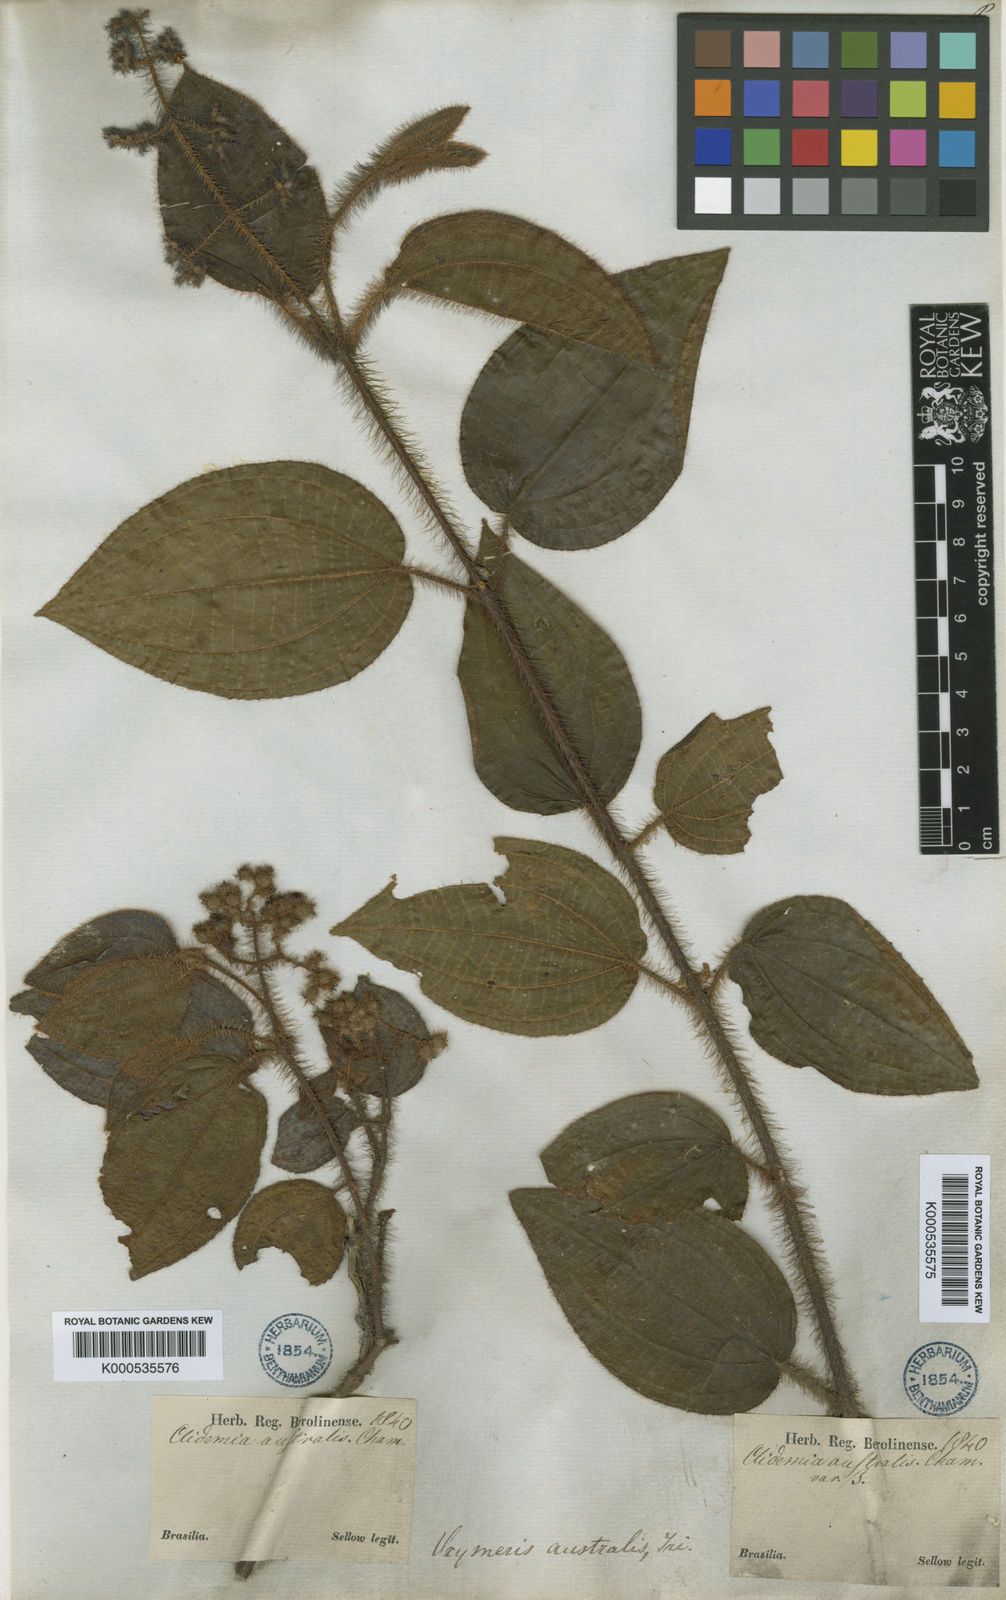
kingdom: Plantae
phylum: Tracheophyta
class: Magnoliopsida
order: Myrtales
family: Melastomataceae
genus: Miconia
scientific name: Miconia australis
